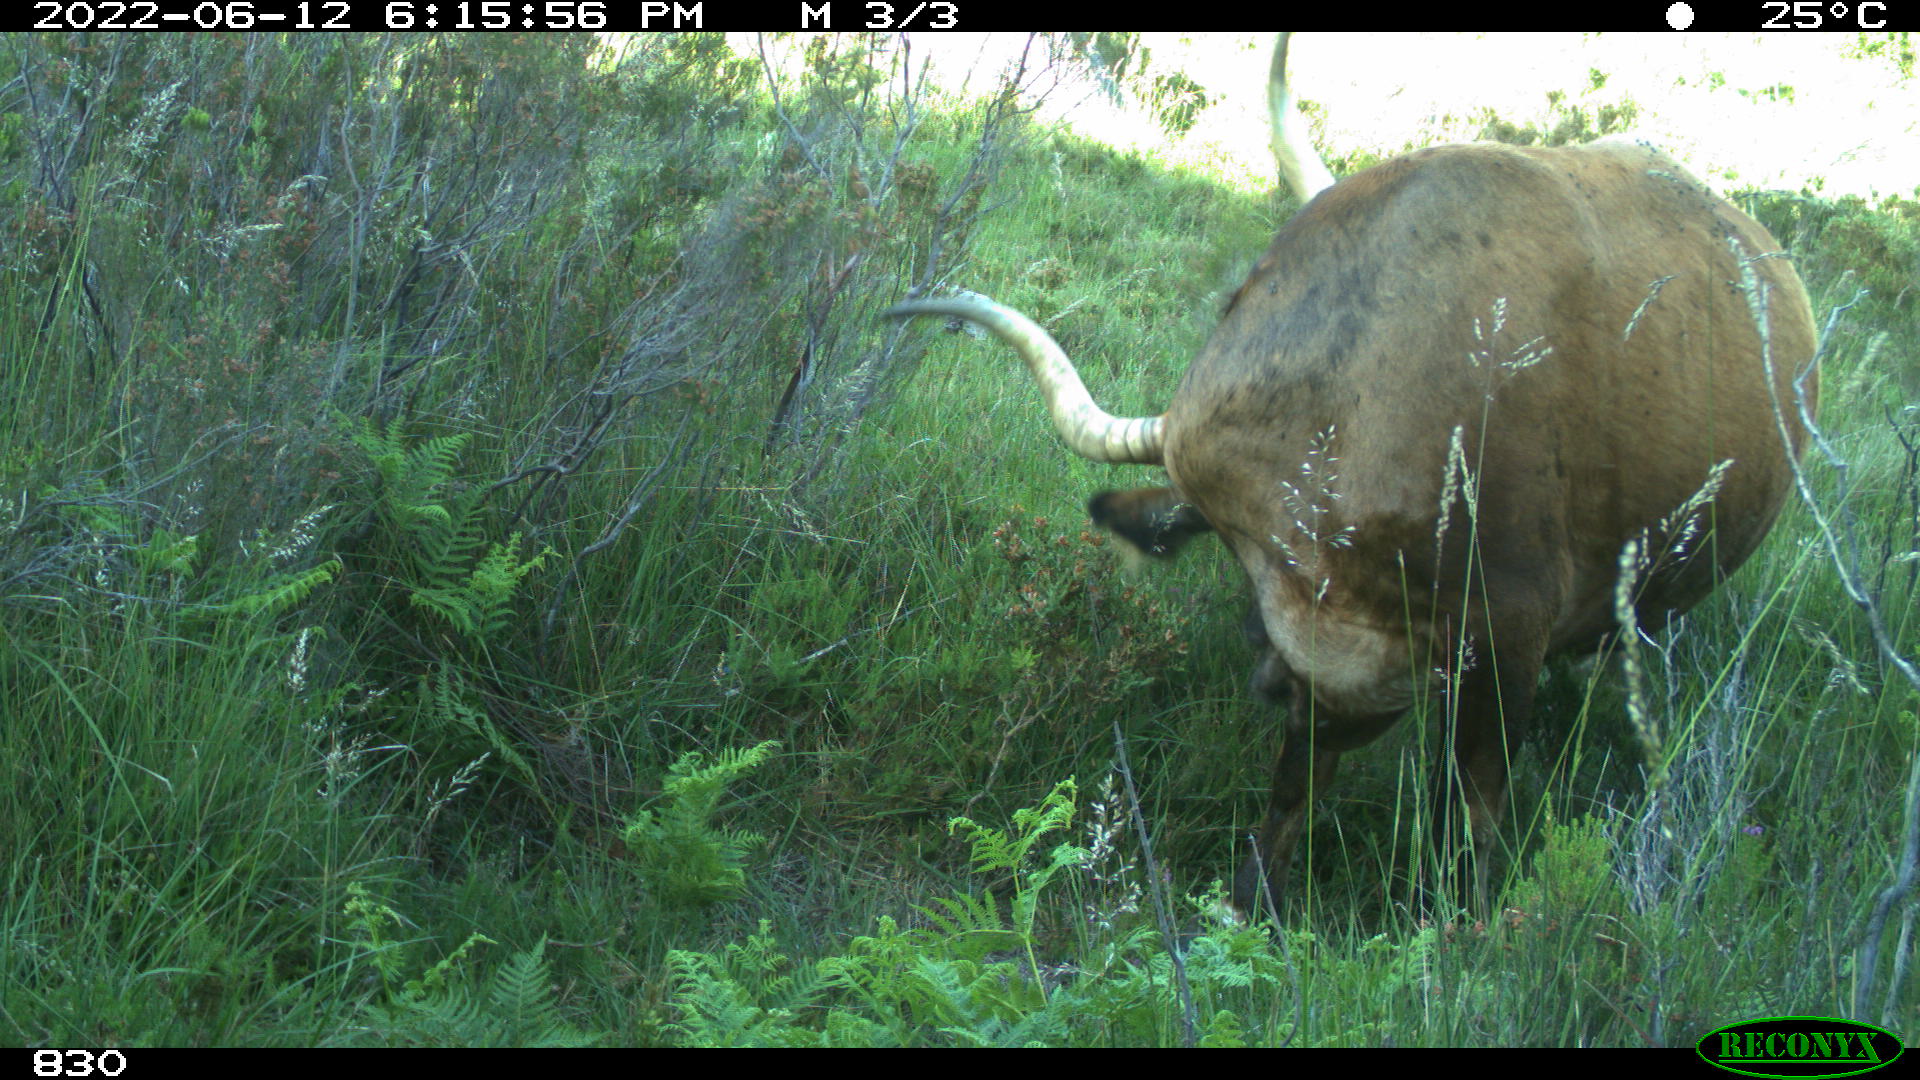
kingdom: Animalia
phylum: Chordata
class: Mammalia
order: Artiodactyla
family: Bovidae
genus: Bos
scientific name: Bos taurus
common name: Domesticated cattle
